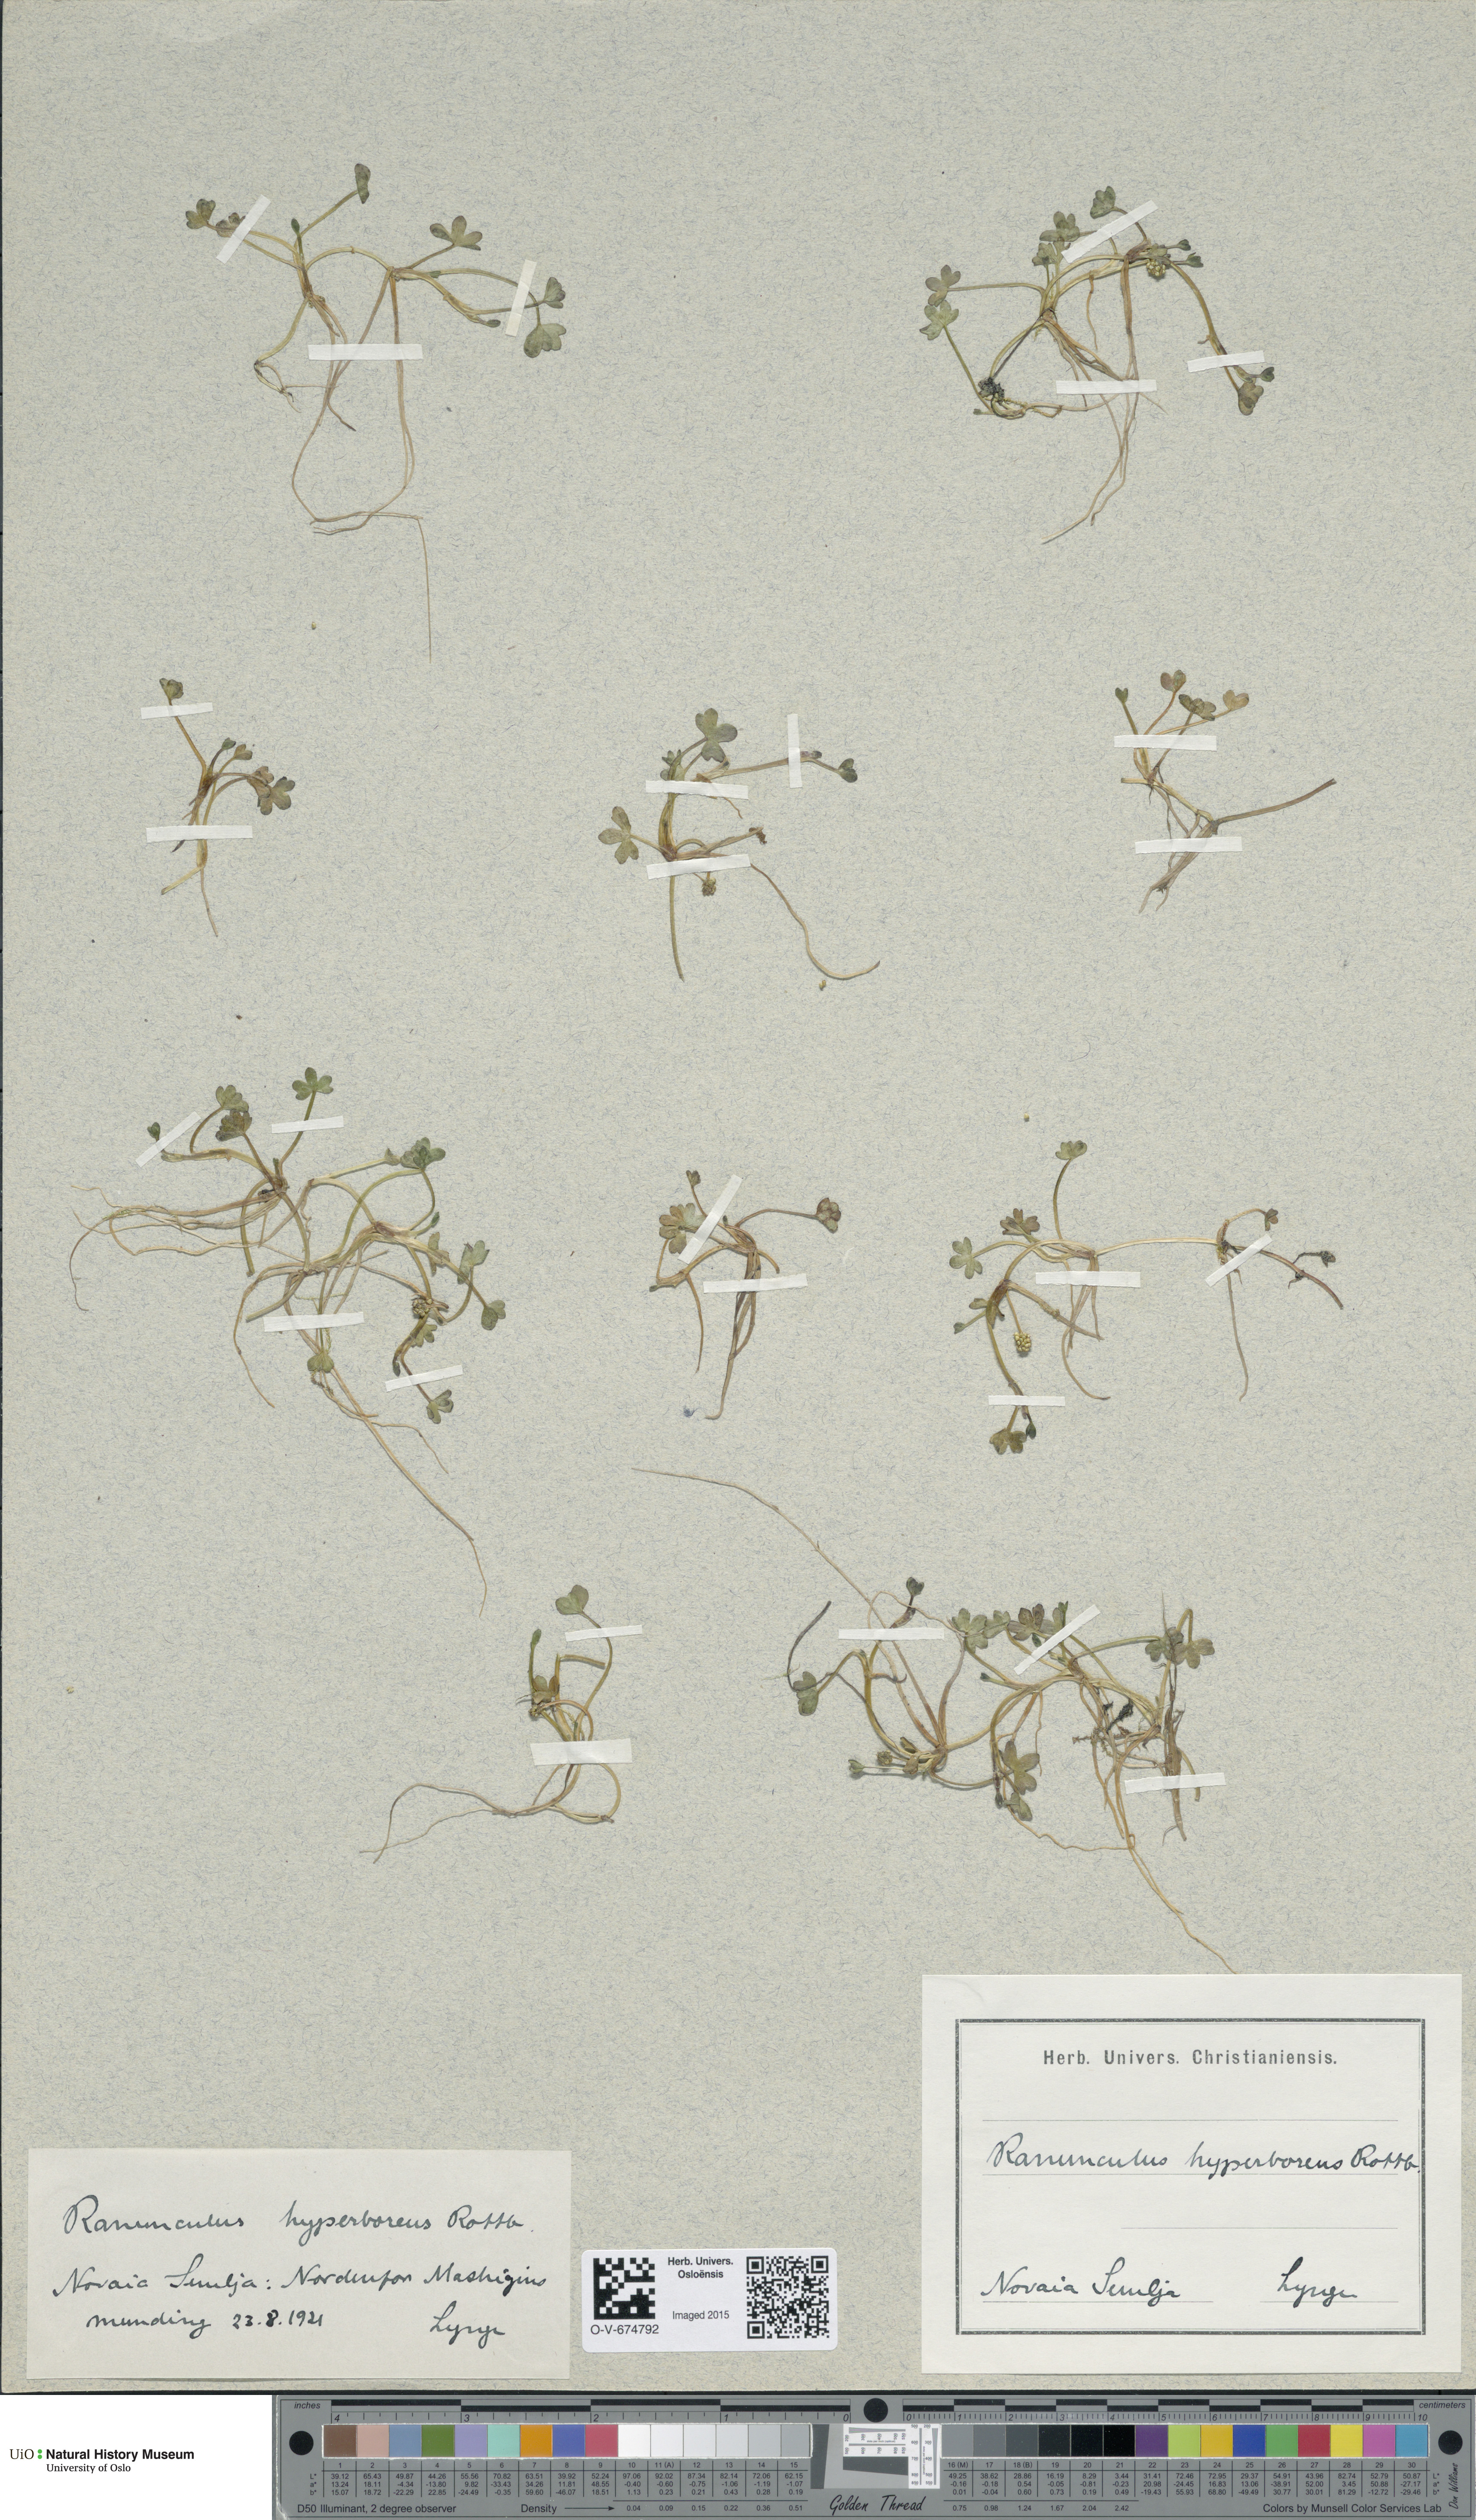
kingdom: Plantae
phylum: Tracheophyta
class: Magnoliopsida
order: Ranunculales
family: Ranunculaceae
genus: Ranunculus
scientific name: Ranunculus hyperboreus
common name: Arctic buttercup
